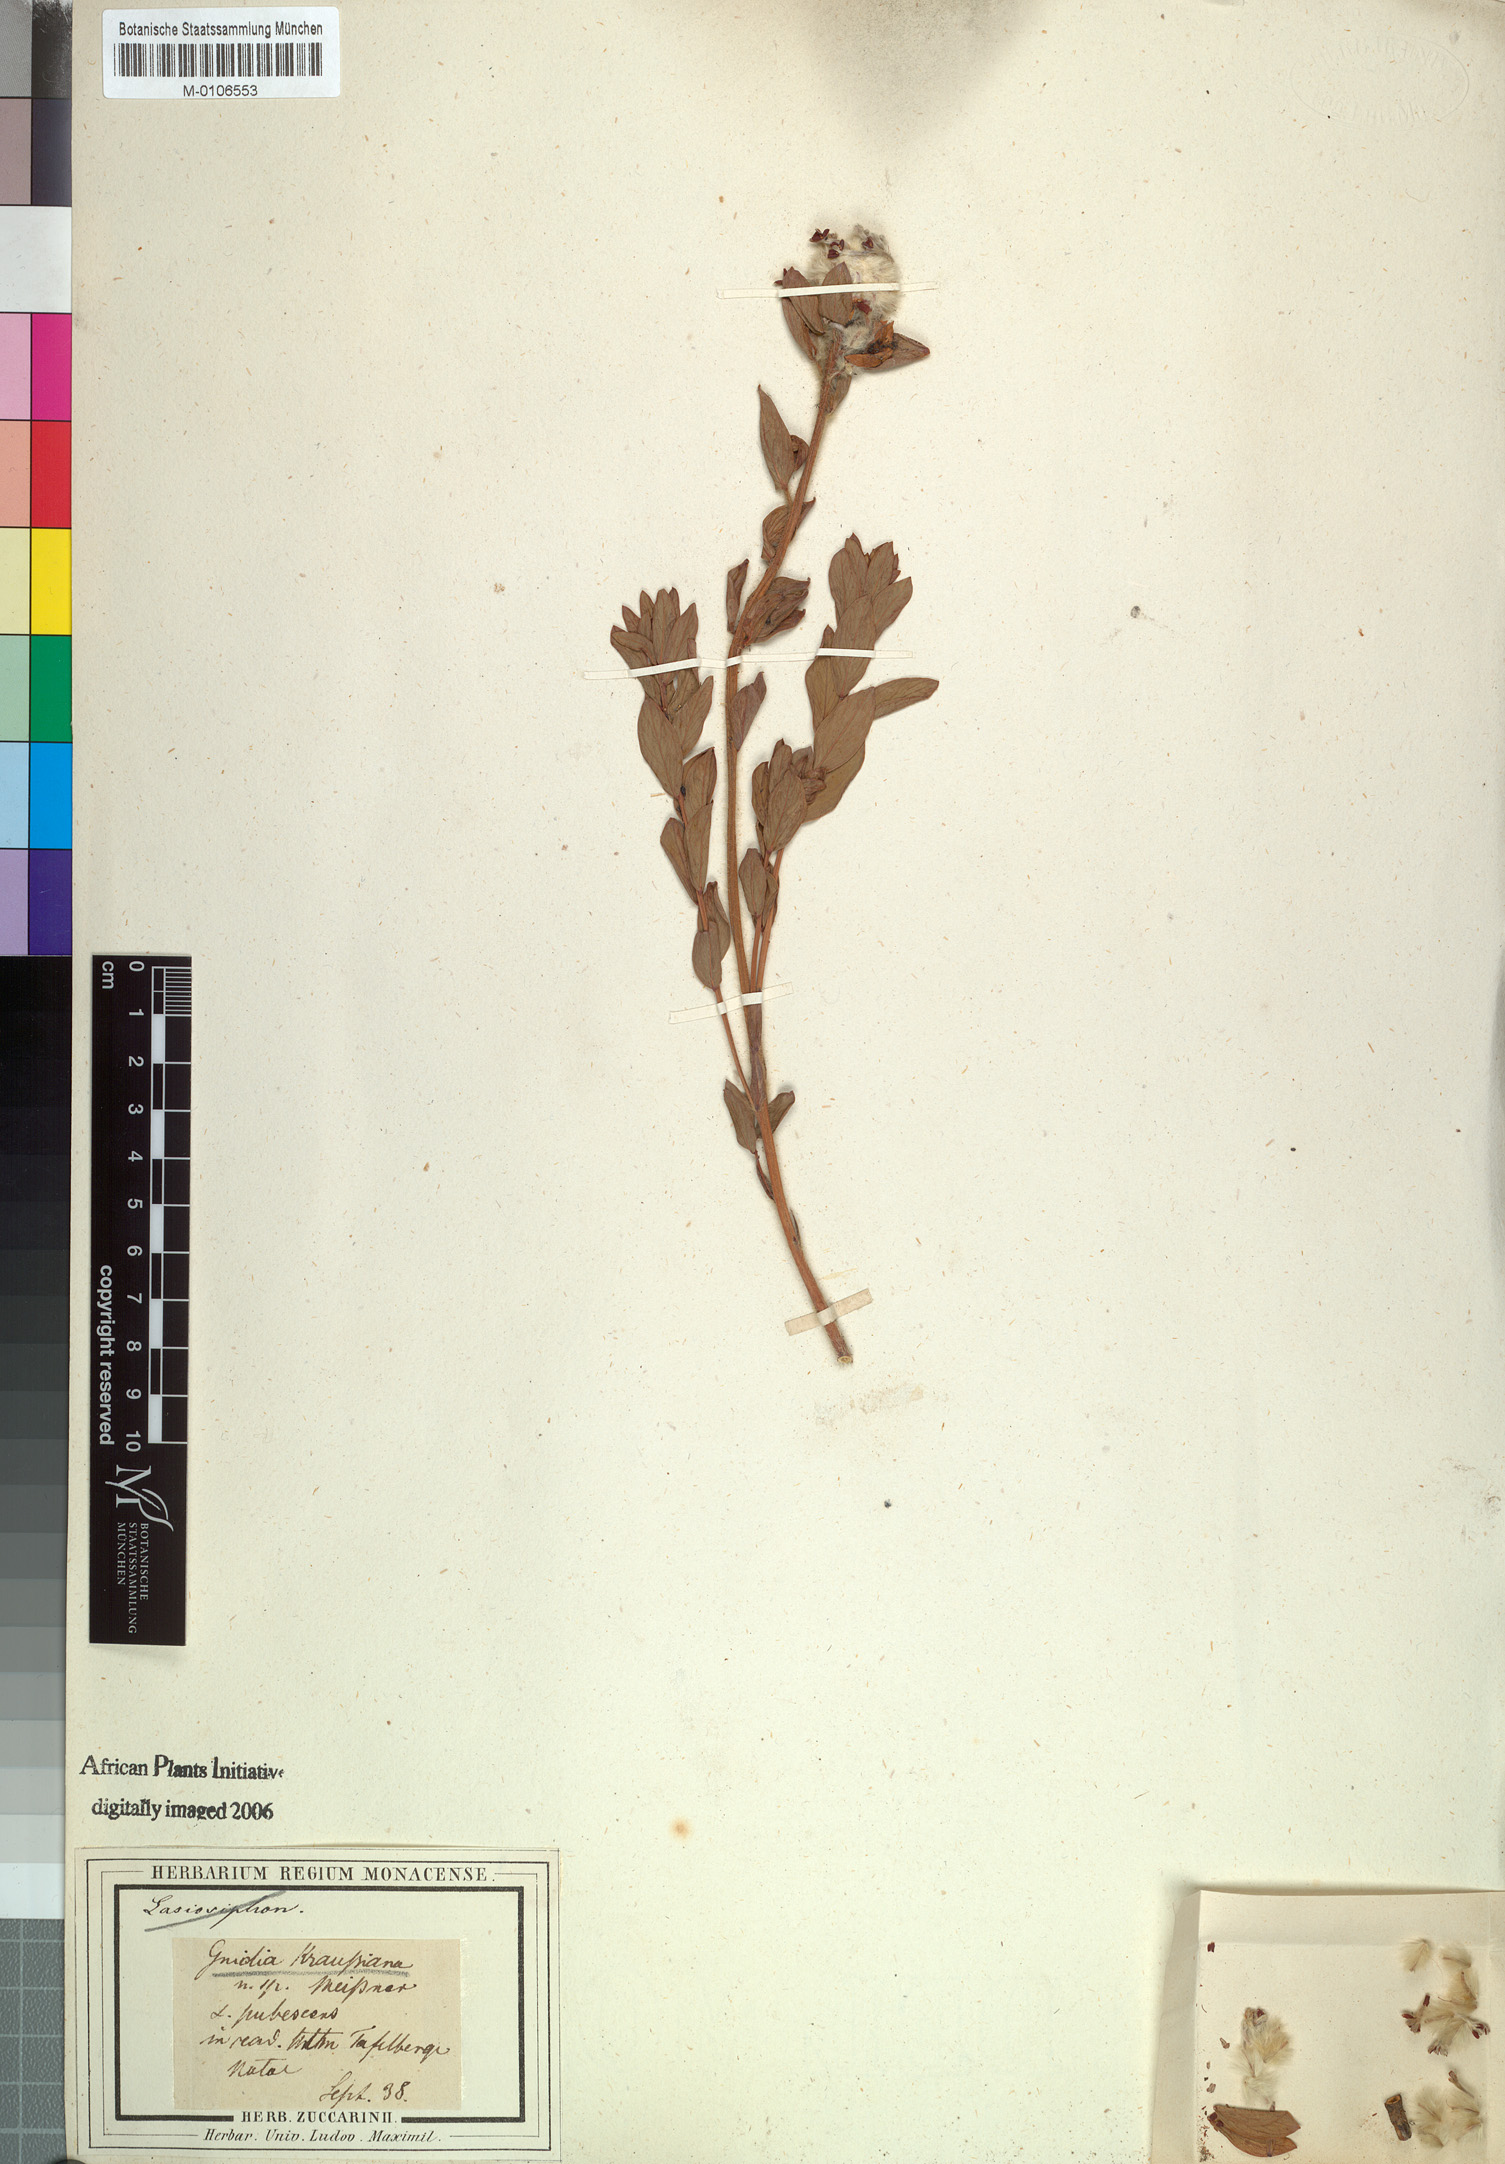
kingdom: Plantae
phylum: Tracheophyta
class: Magnoliopsida
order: Malvales
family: Thymelaeaceae
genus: Gnidia
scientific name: Gnidia kraussiana
